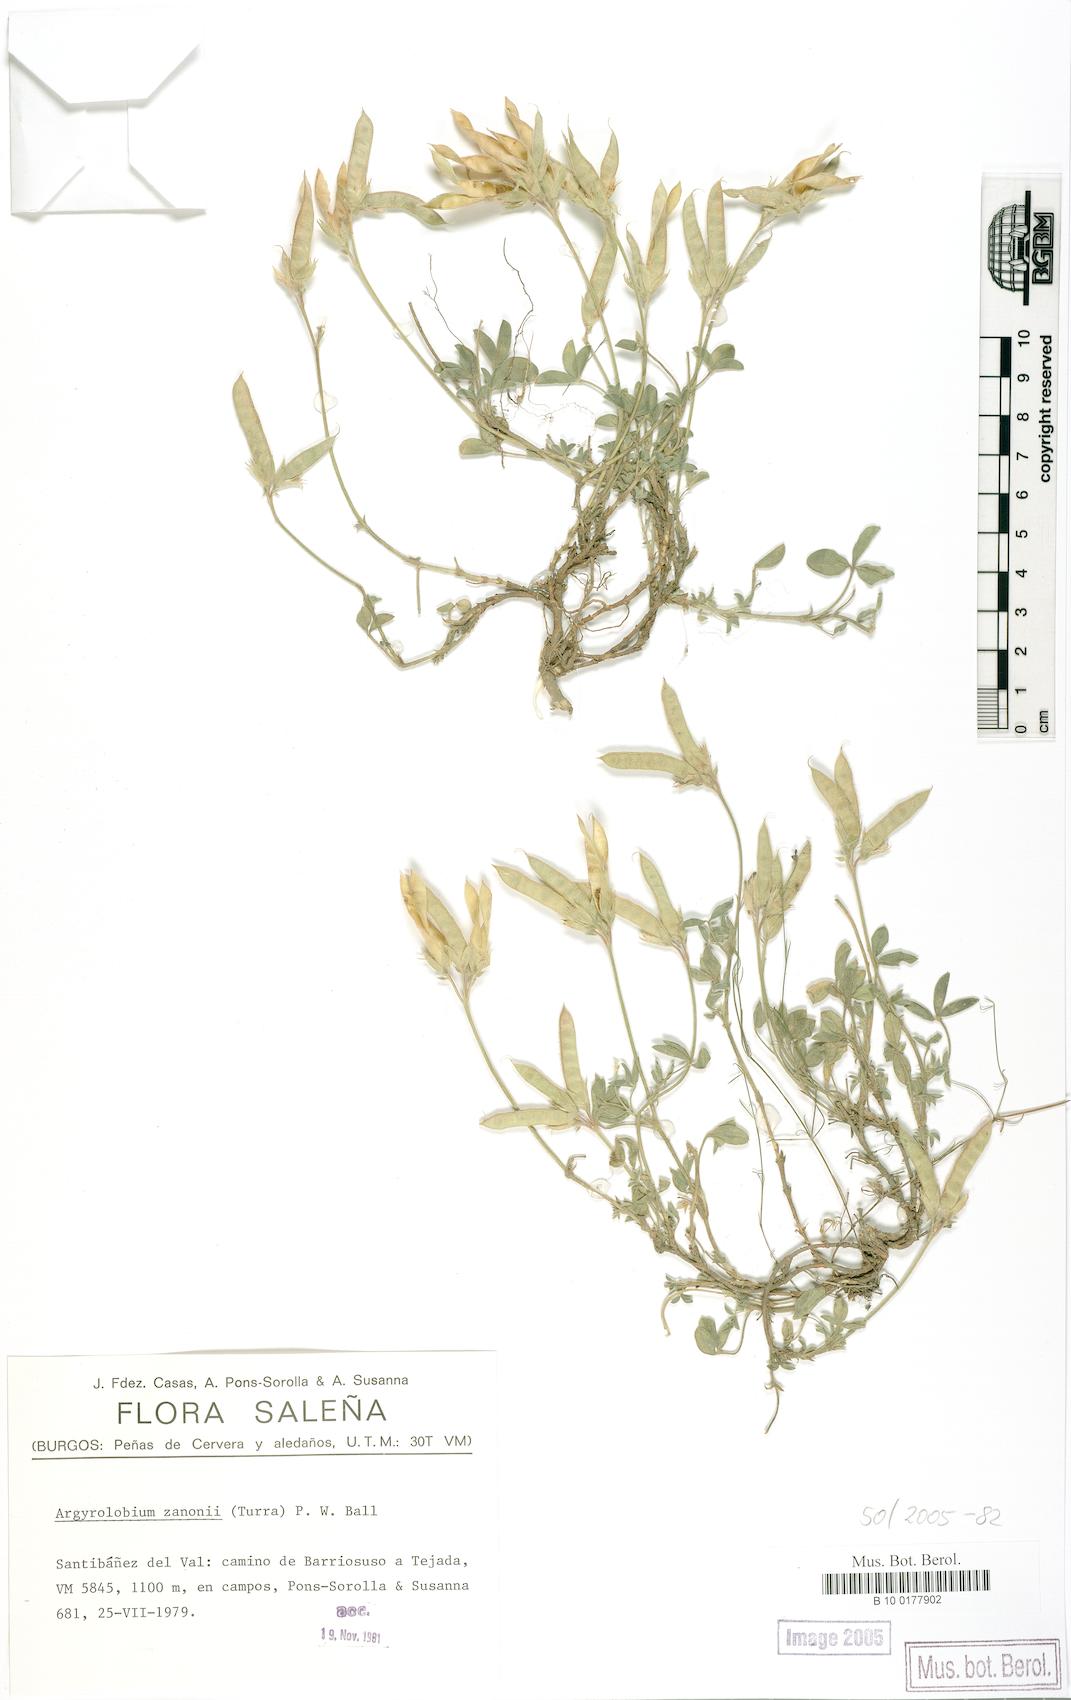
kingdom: Plantae
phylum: Tracheophyta
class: Magnoliopsida
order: Fabales
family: Fabaceae
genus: Argyrolobium
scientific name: Argyrolobium zanonii
